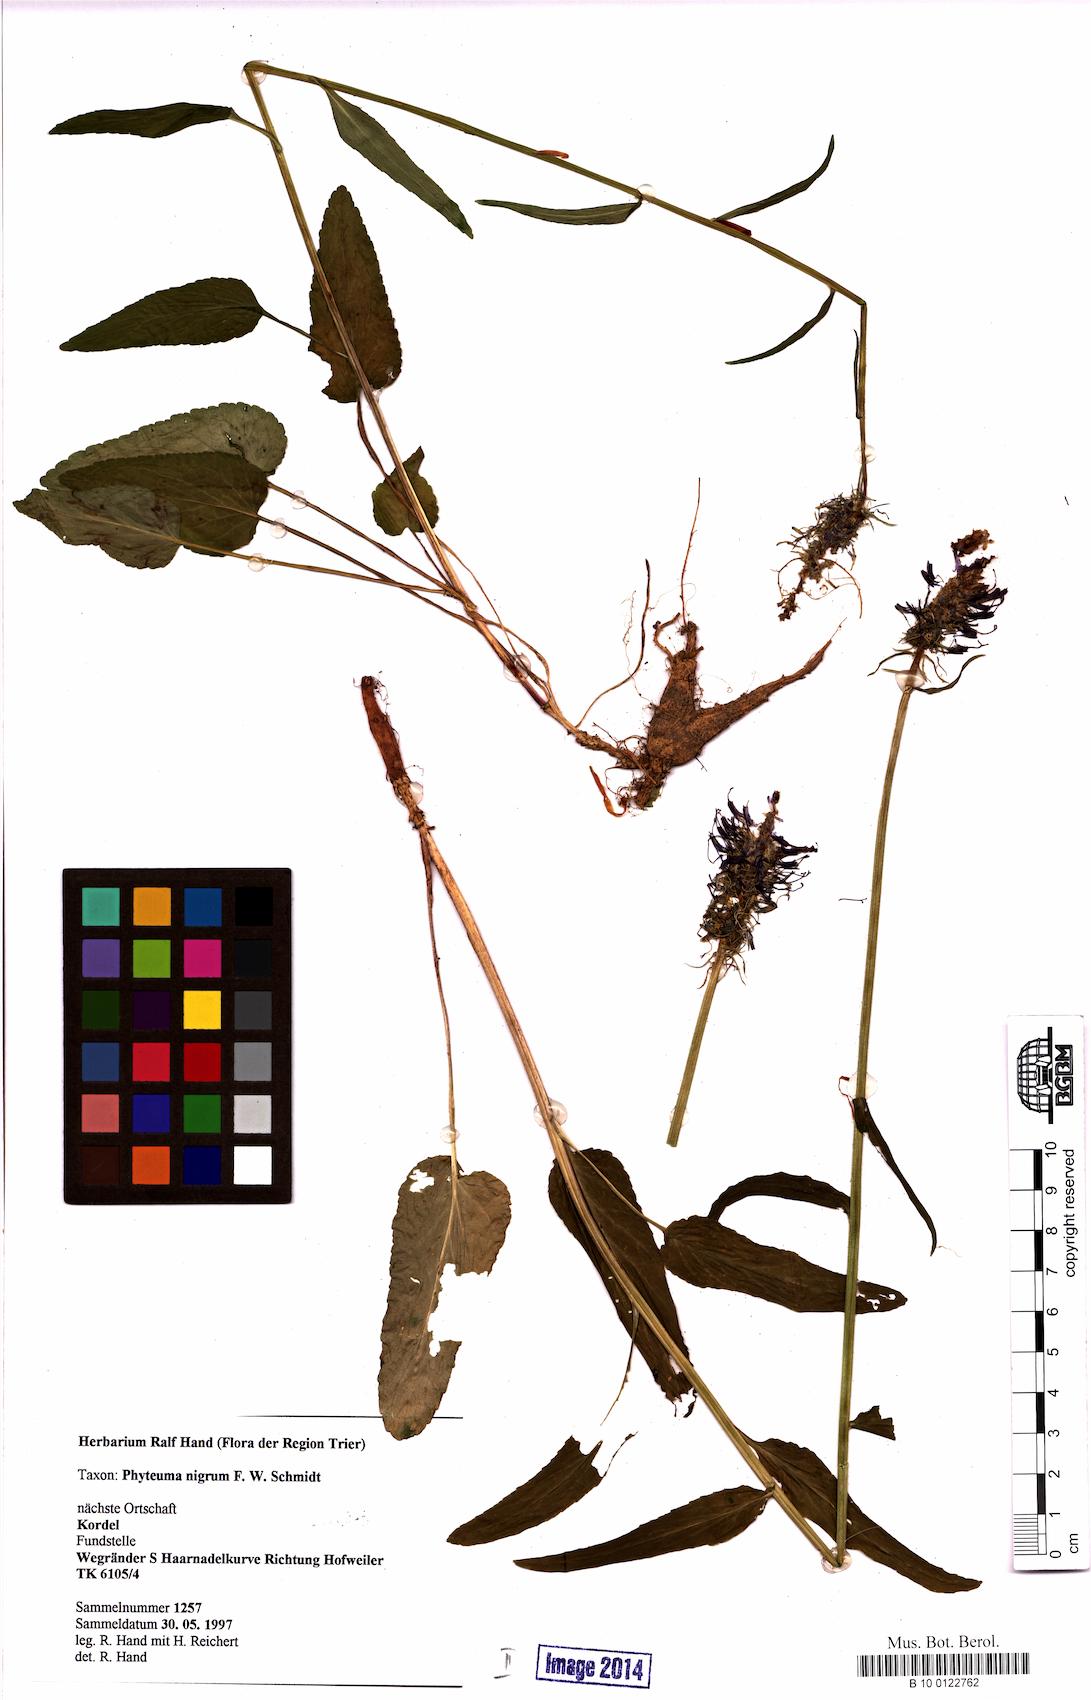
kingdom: Plantae
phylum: Tracheophyta
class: Magnoliopsida
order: Asterales
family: Campanulaceae
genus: Phyteuma
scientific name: Phyteuma nigrum
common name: Black rampion
